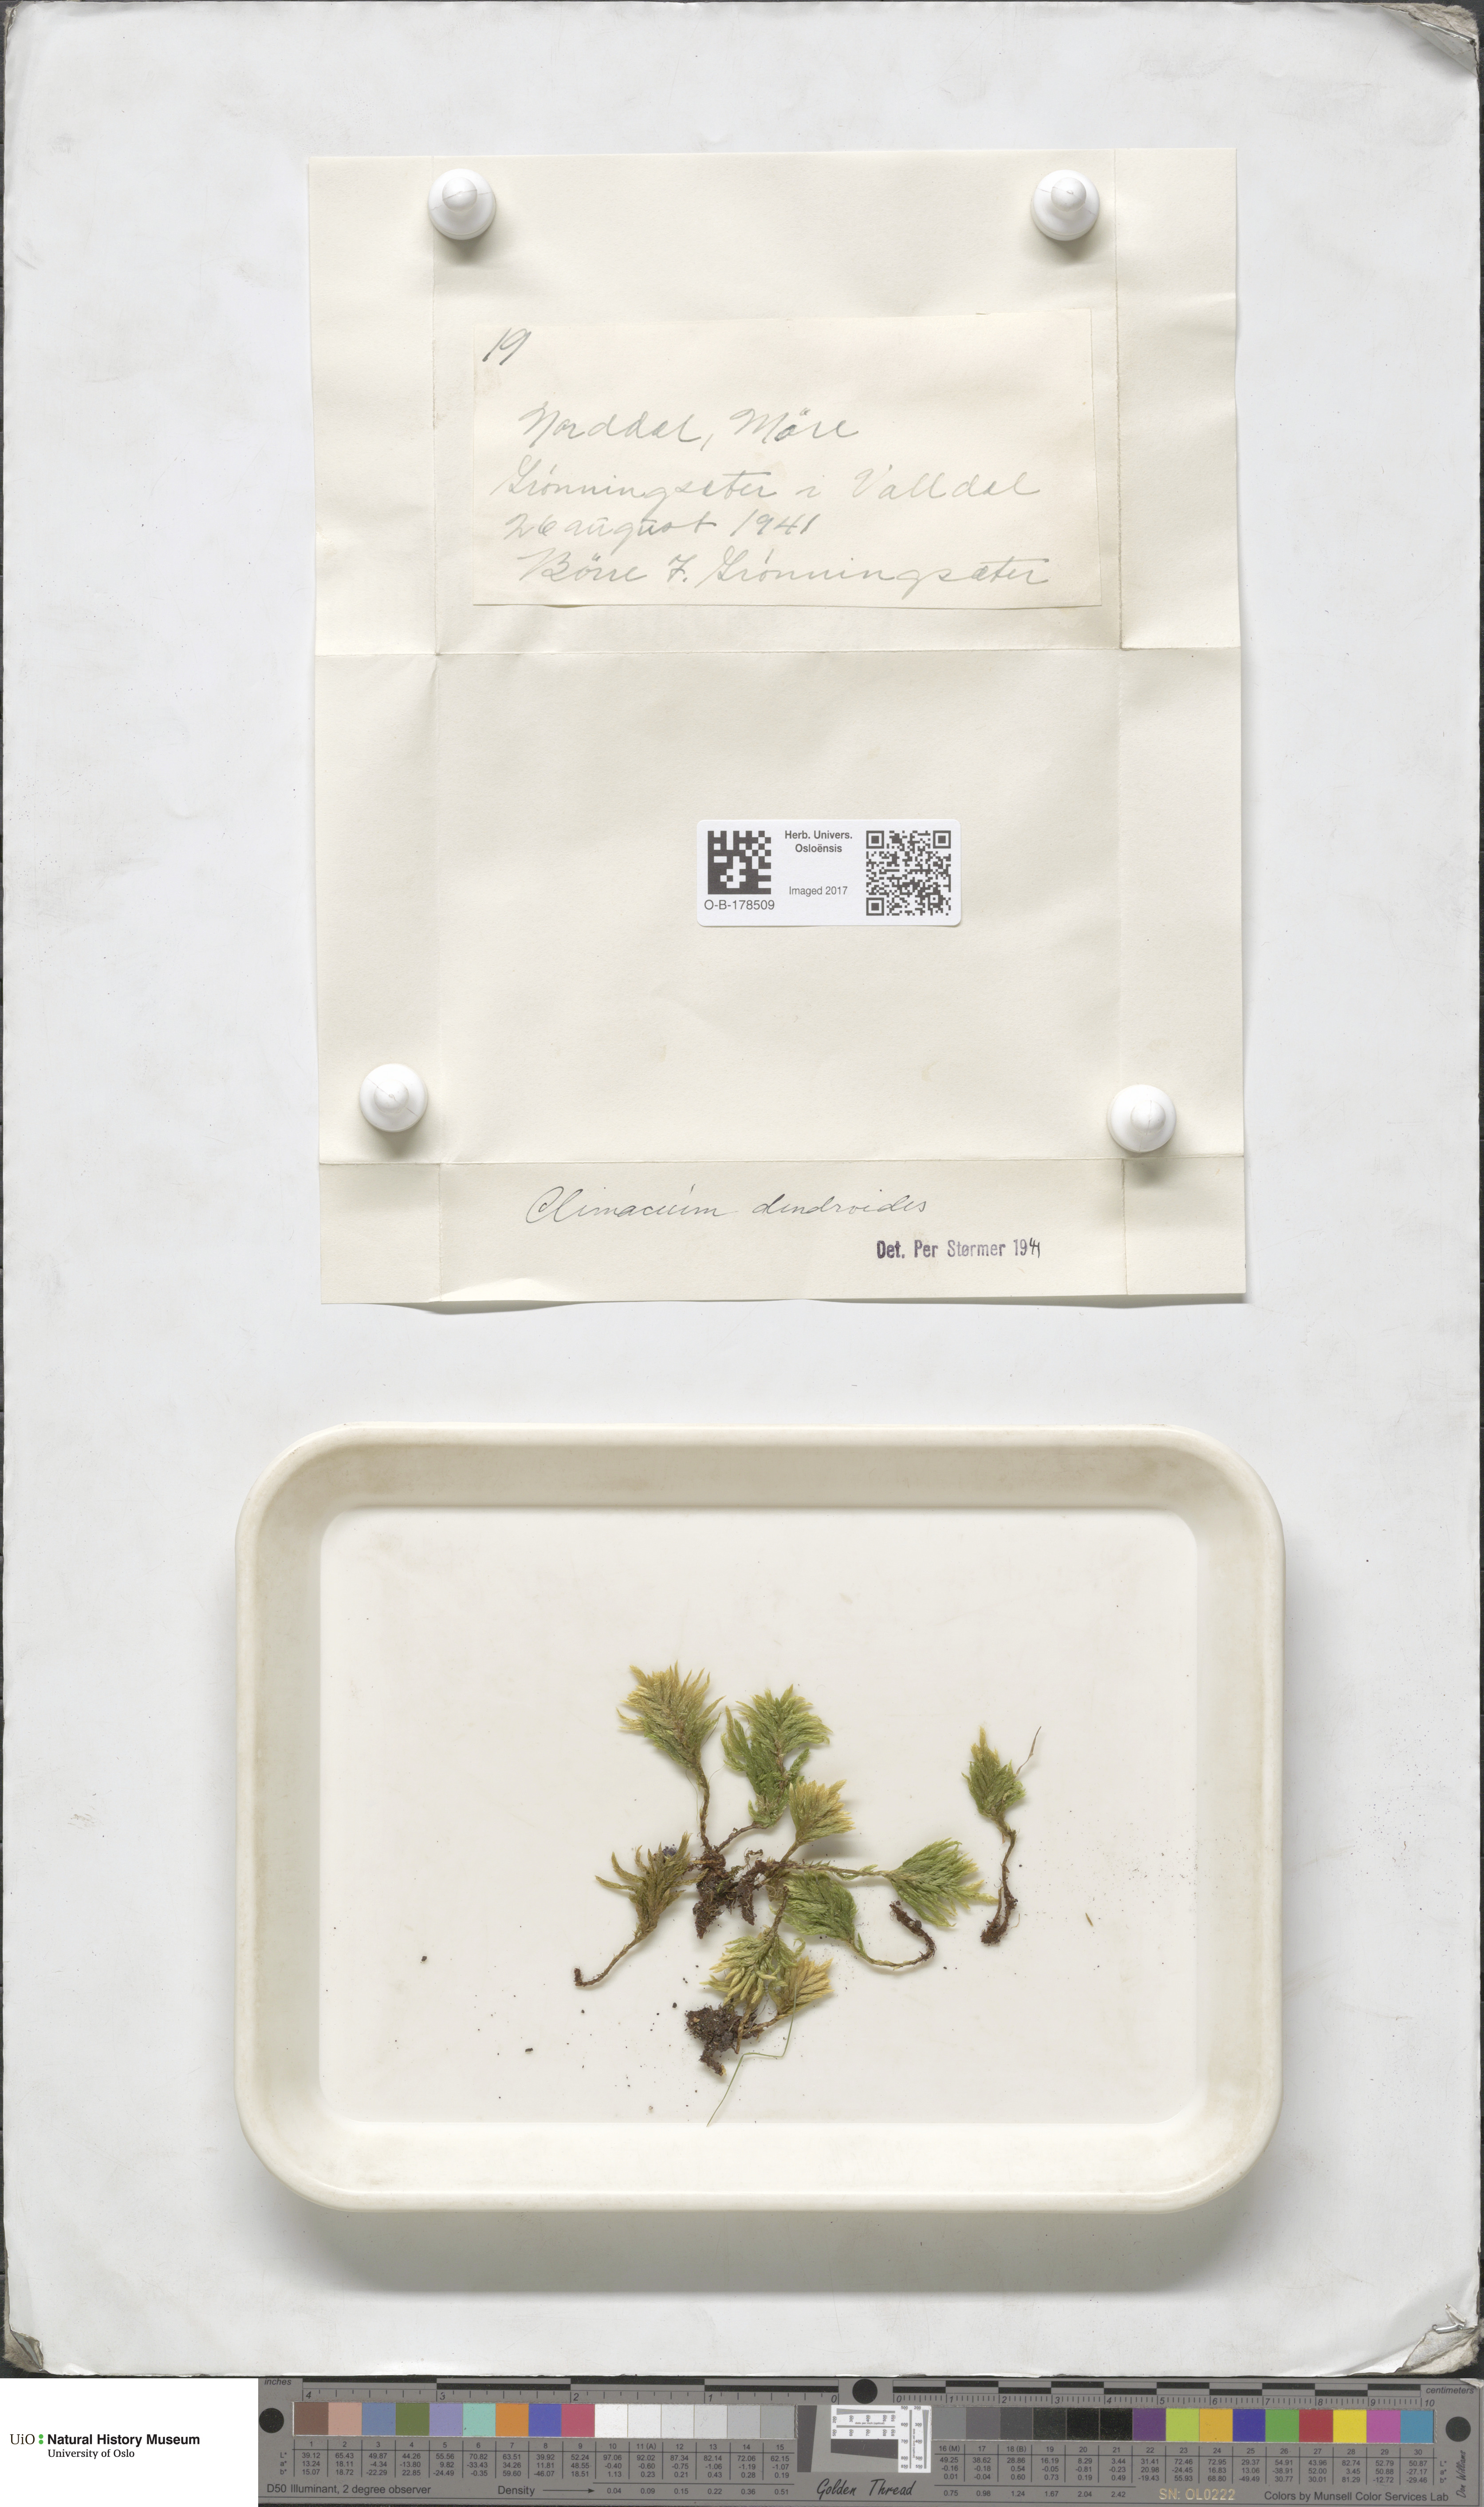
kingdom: Plantae
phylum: Bryophyta
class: Bryopsida
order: Hypnales
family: Climaciaceae
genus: Climacium
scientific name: Climacium dendroides
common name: Northern tree moss
